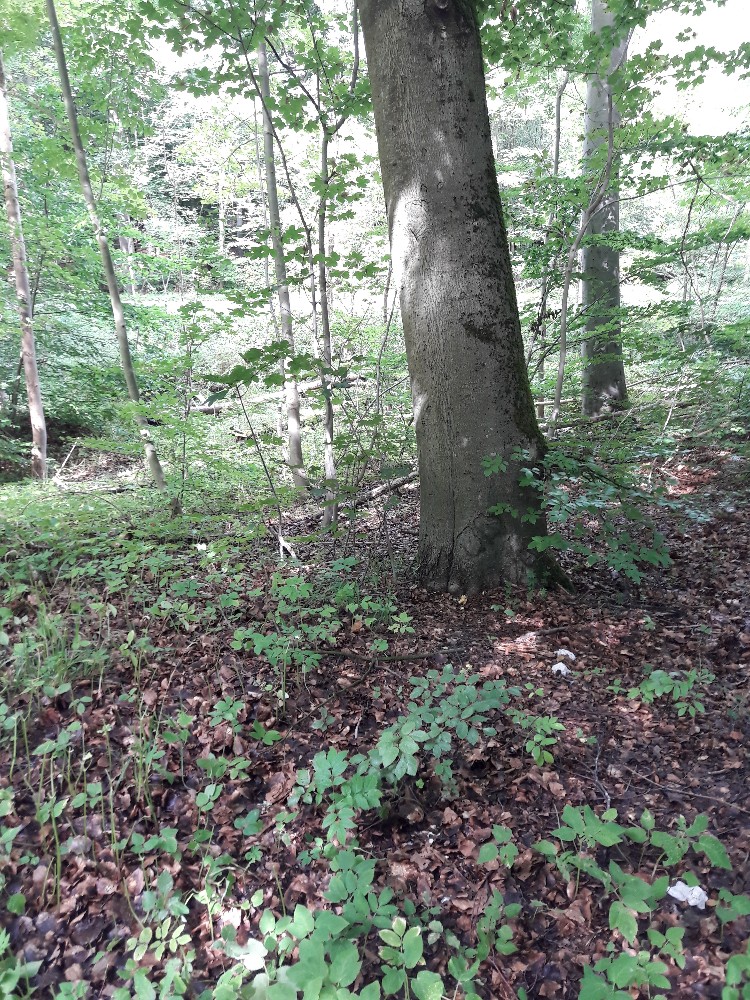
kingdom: Fungi
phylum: Basidiomycota
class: Agaricomycetes
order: Agaricales
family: Tricholomataceae
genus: Tricholoma
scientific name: Tricholoma sulphureum
